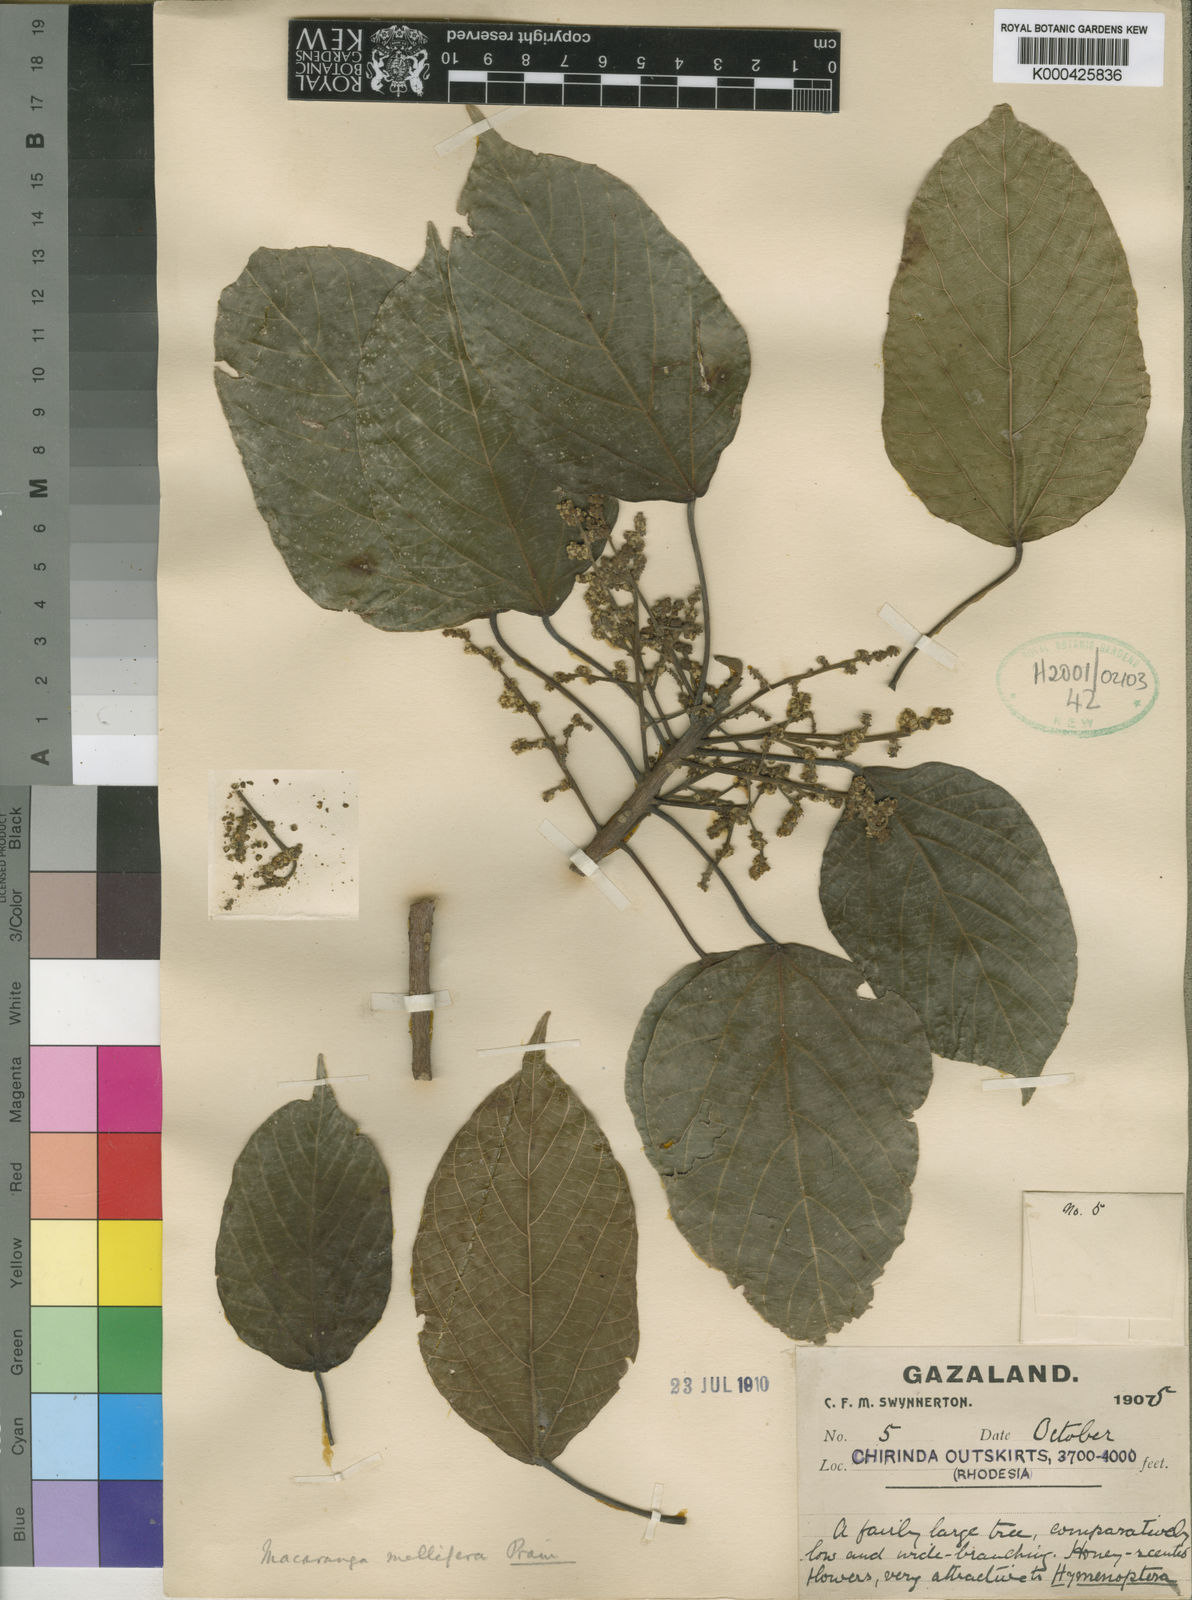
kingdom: Plantae
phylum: Tracheophyta
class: Magnoliopsida
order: Malpighiales
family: Euphorbiaceae
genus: Macaranga
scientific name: Macaranga mellifera
